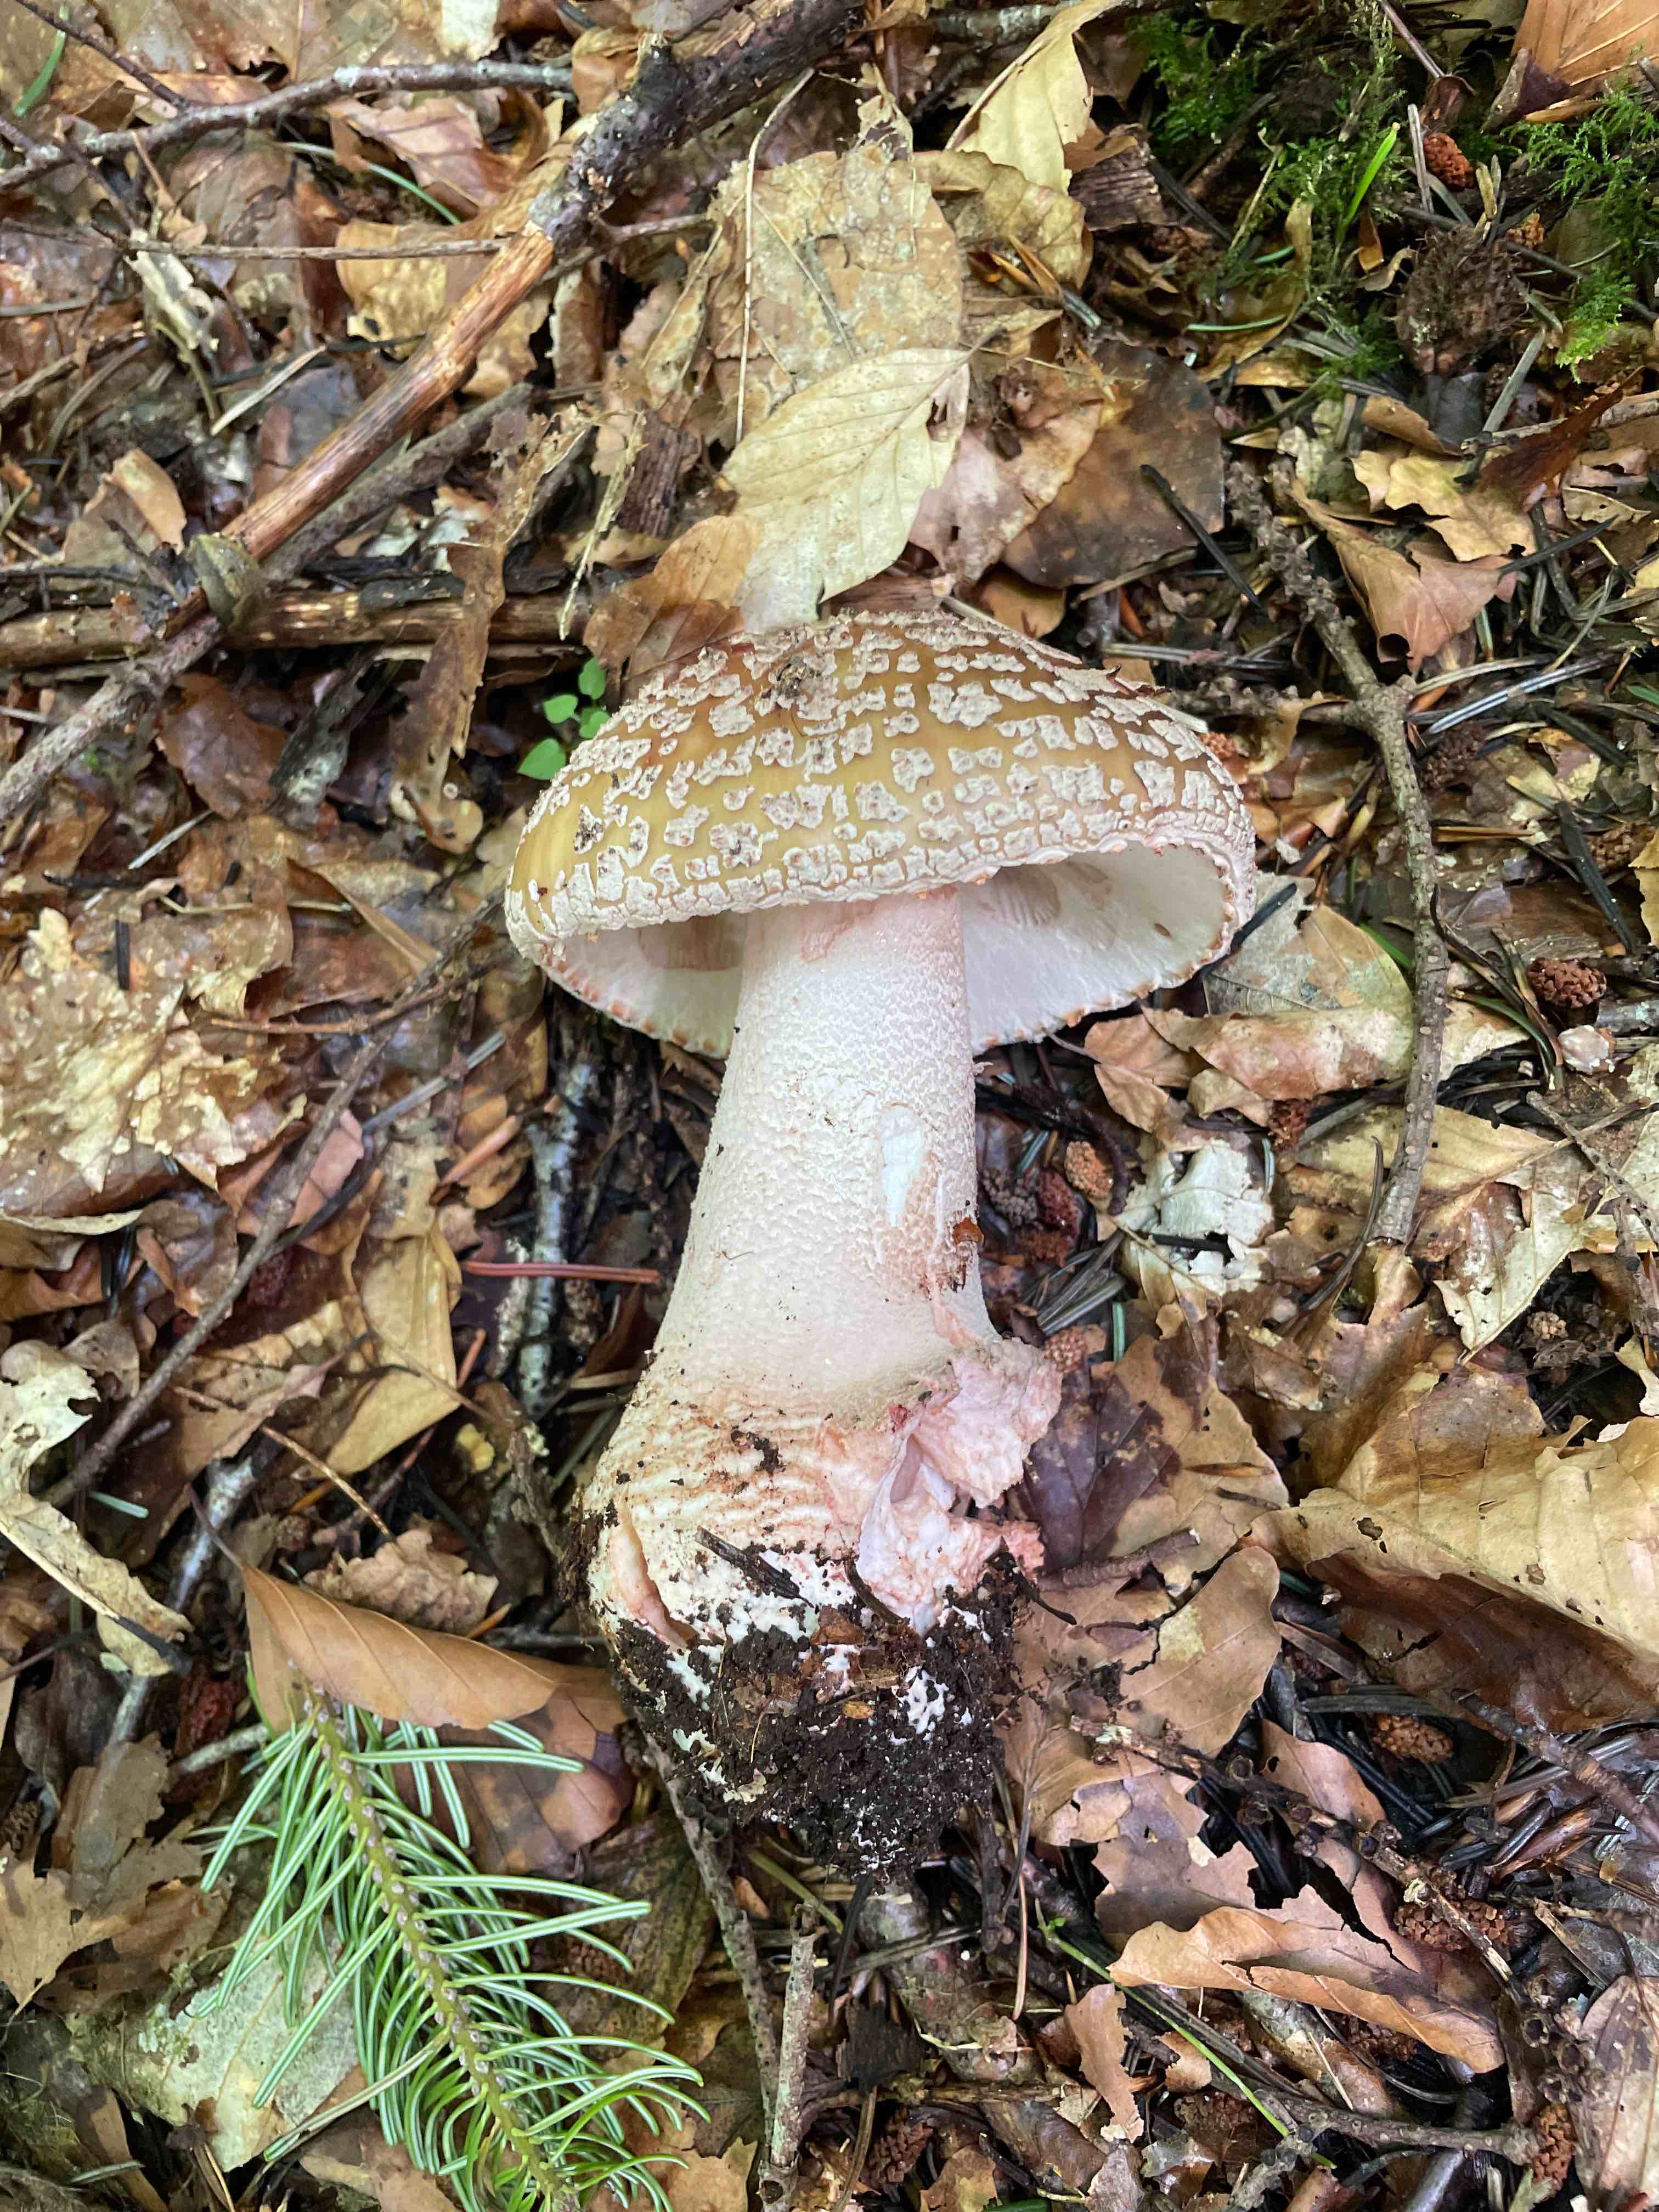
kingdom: Fungi
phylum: Basidiomycota
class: Agaricomycetes
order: Agaricales
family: Amanitaceae
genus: Amanita
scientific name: Amanita rubescens
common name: rødmende fluesvamp
